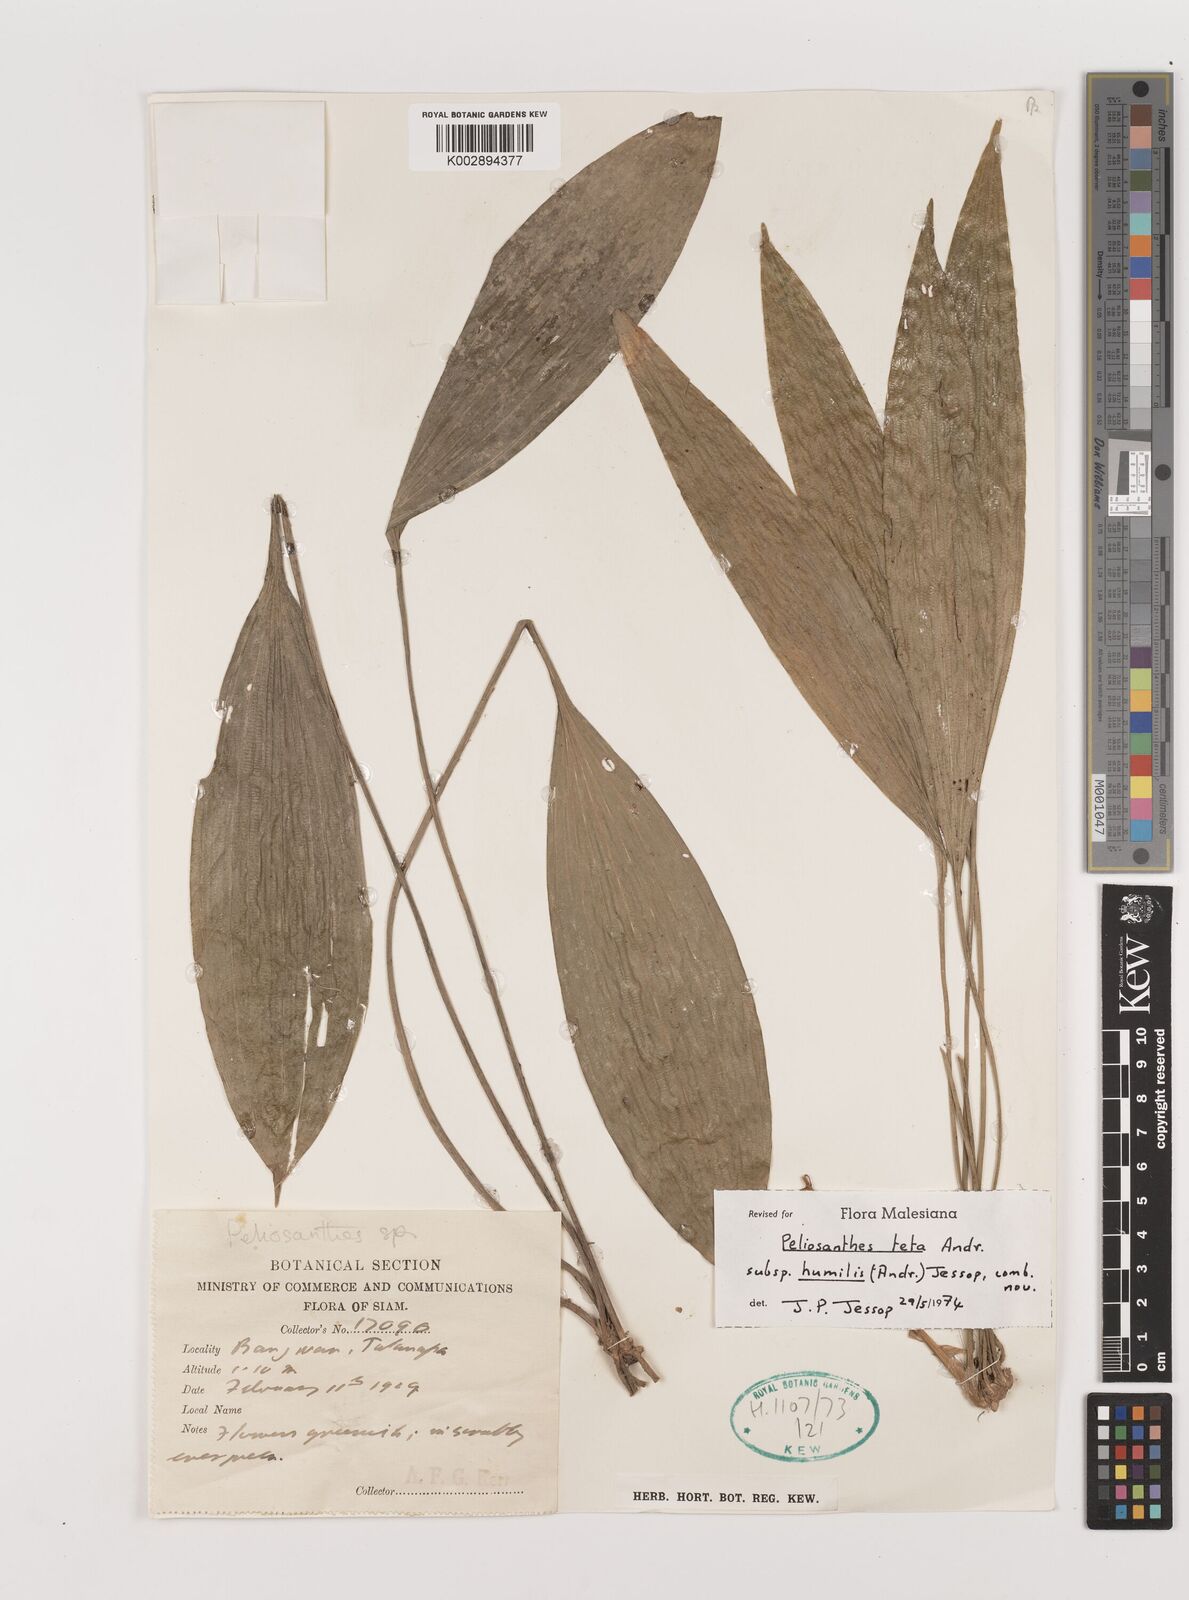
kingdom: Plantae
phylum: Tracheophyta
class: Liliopsida
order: Asparagales
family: Asparagaceae
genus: Peliosanthes
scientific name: Peliosanthes teta
